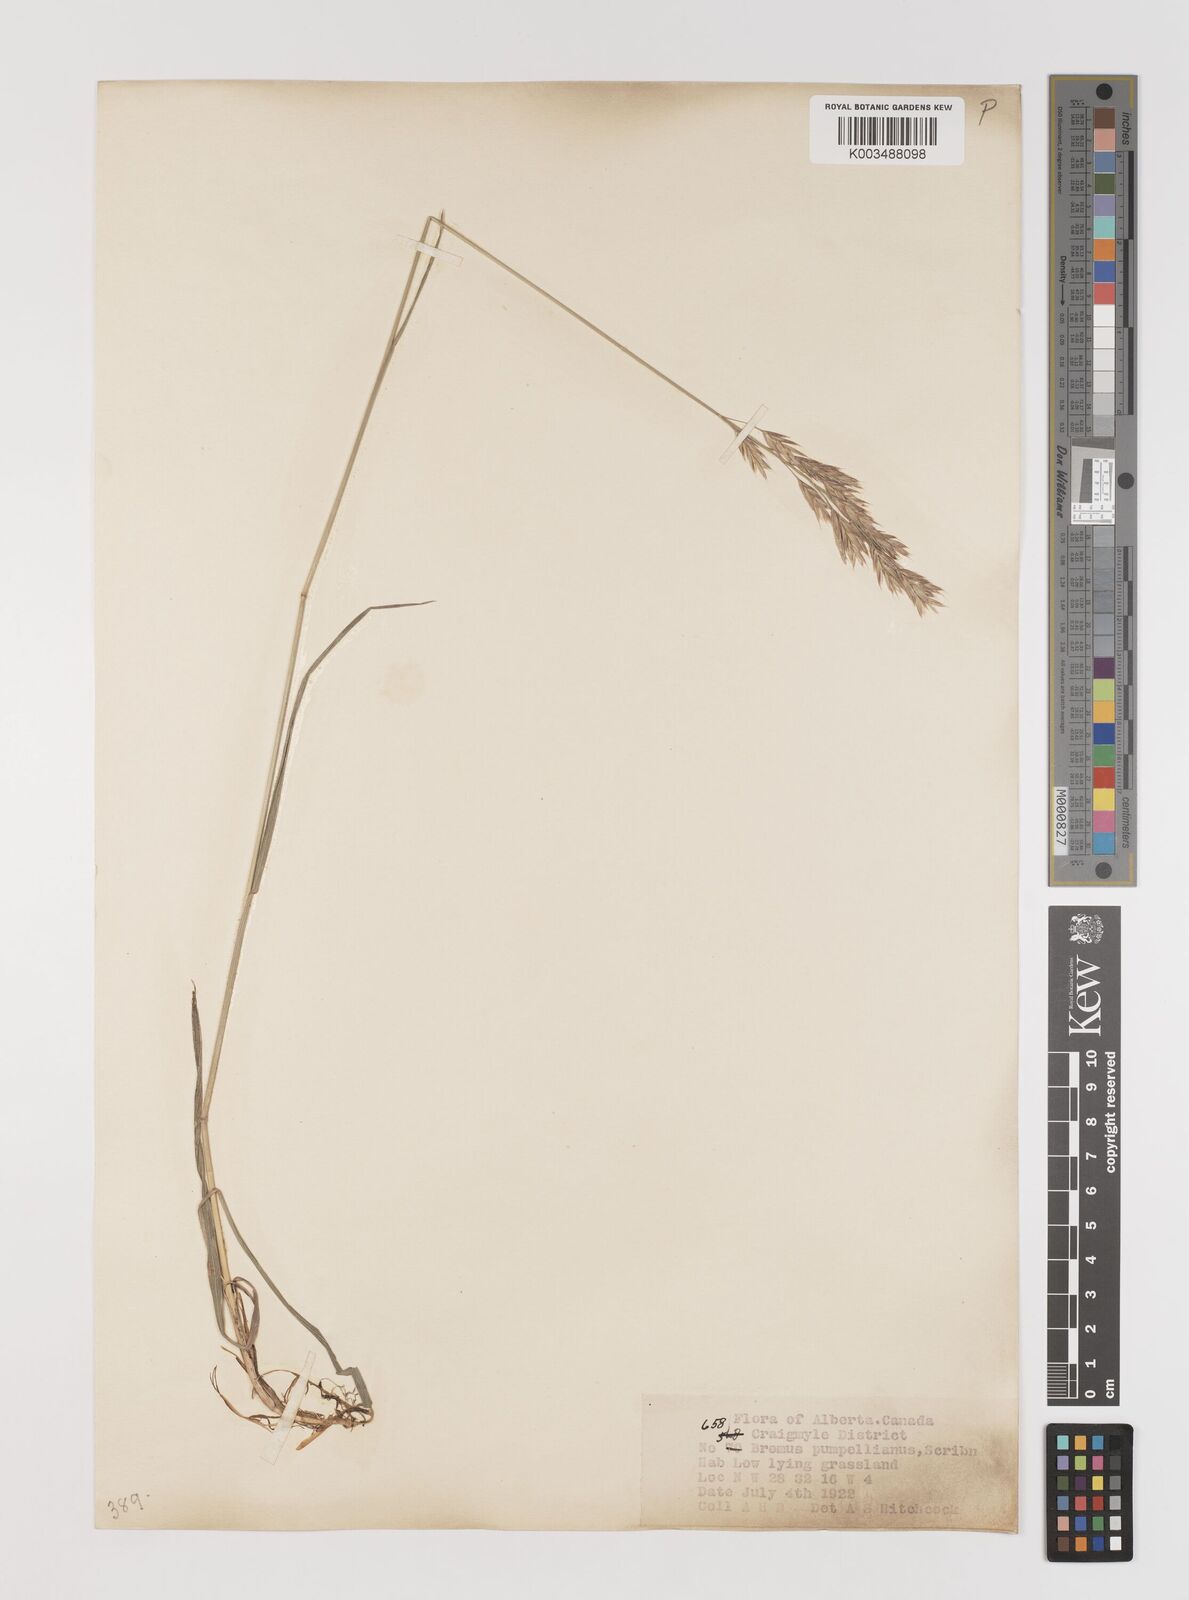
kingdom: Plantae
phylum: Tracheophyta
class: Liliopsida
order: Poales
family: Poaceae
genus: Bromus
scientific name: Bromus pumpellianus
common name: Pumpelly's brome
